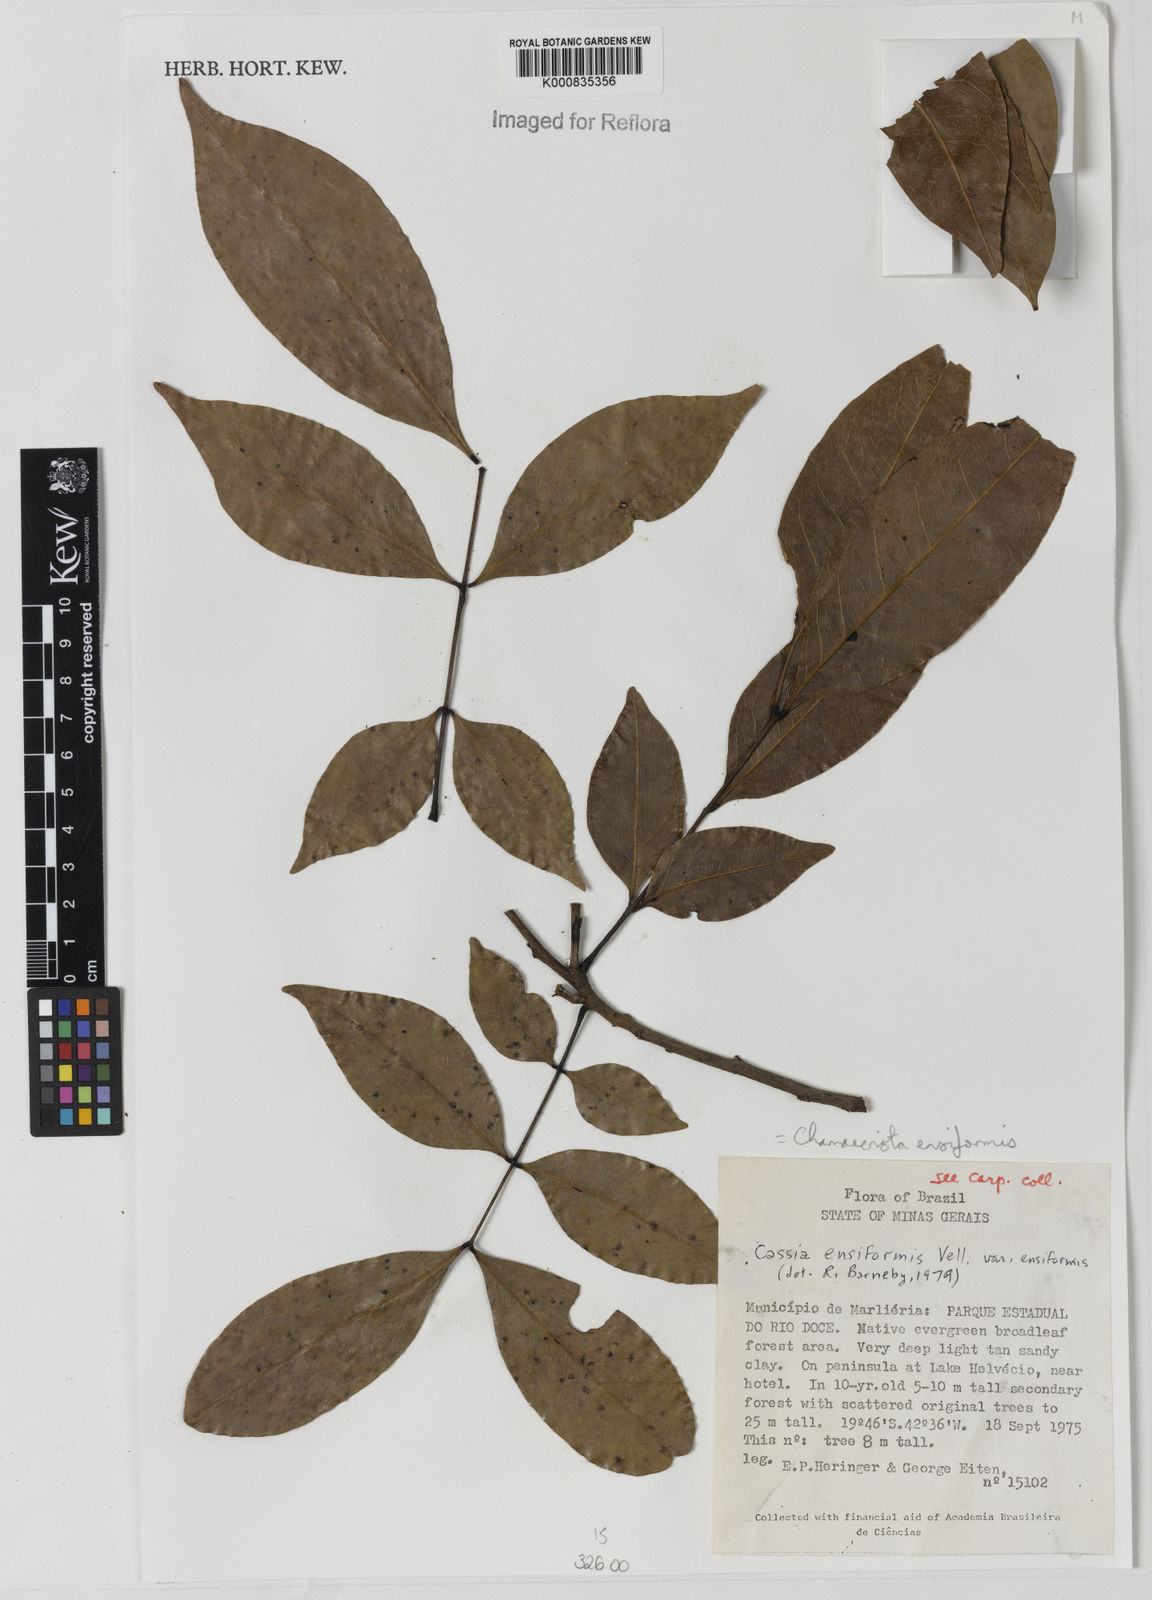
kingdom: Plantae
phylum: Tracheophyta
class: Magnoliopsida
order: Fabales
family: Fabaceae
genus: Chamaecrista
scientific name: Chamaecrista ensiformis
